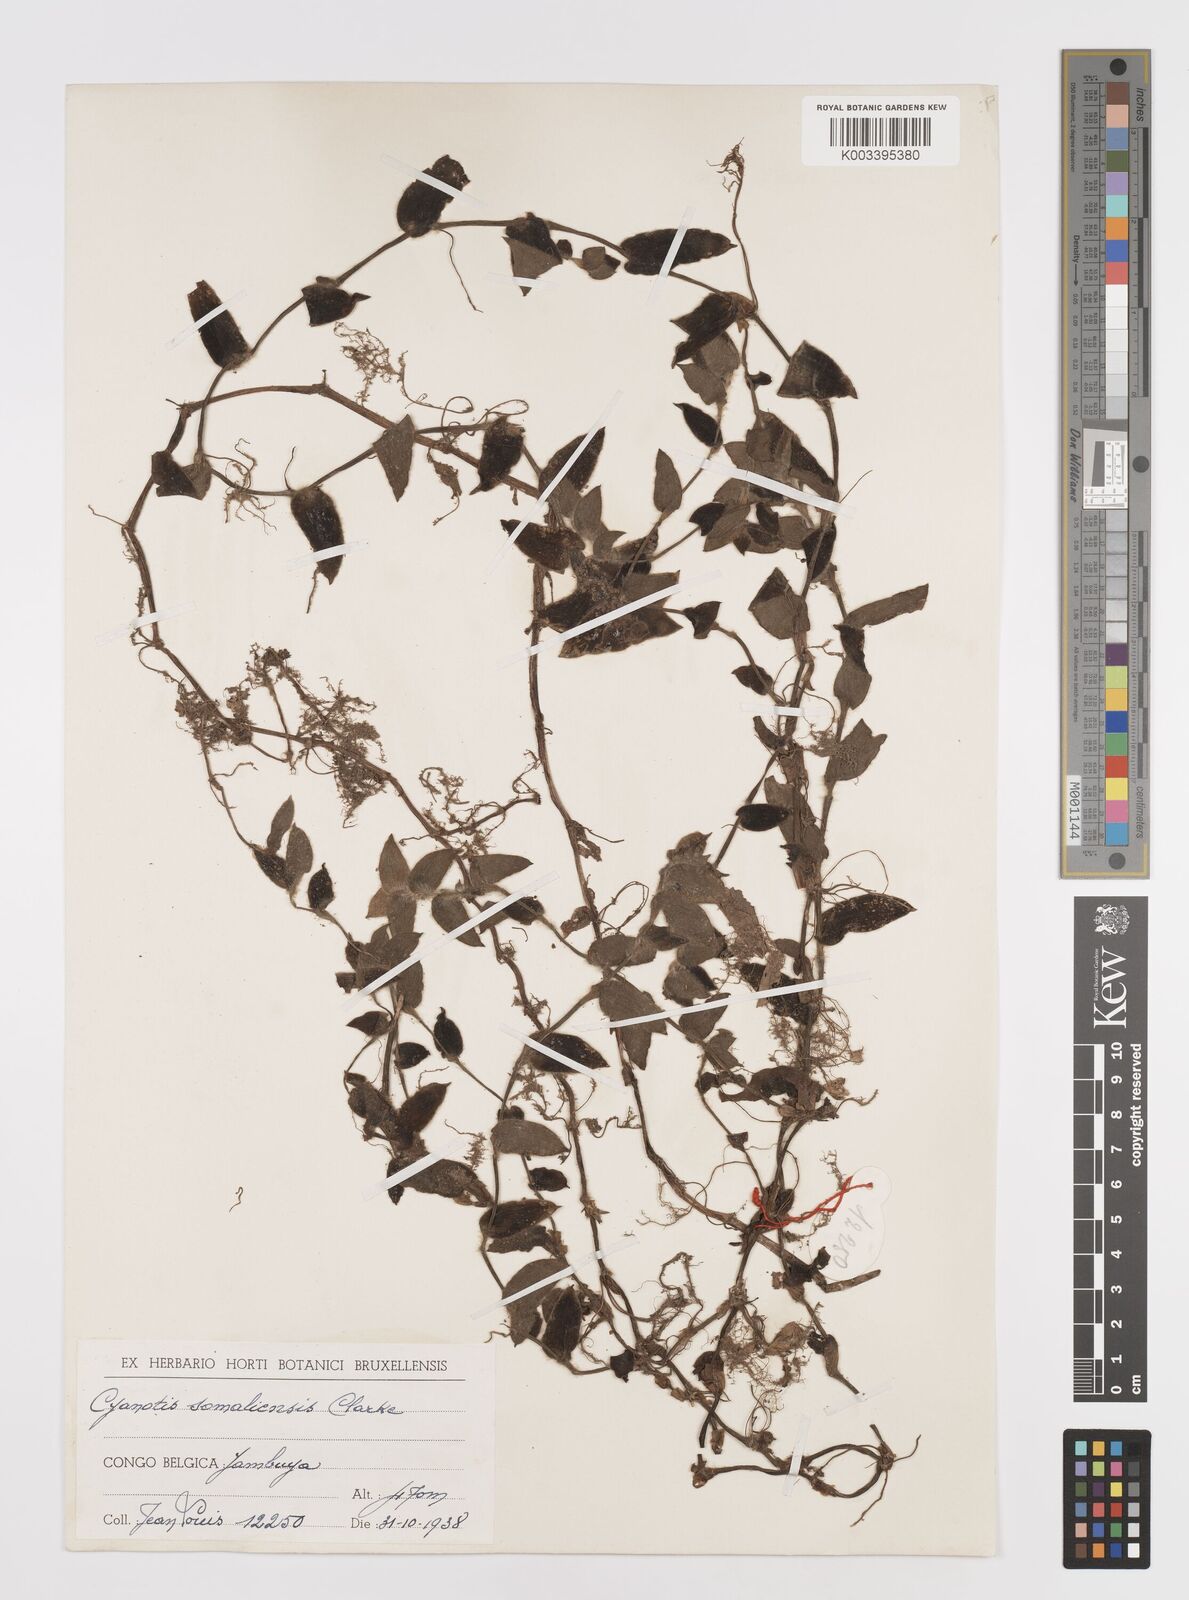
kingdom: Plantae
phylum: Tracheophyta
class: Liliopsida
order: Commelinales
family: Commelinaceae
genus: Cyanotis
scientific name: Cyanotis foecunda
